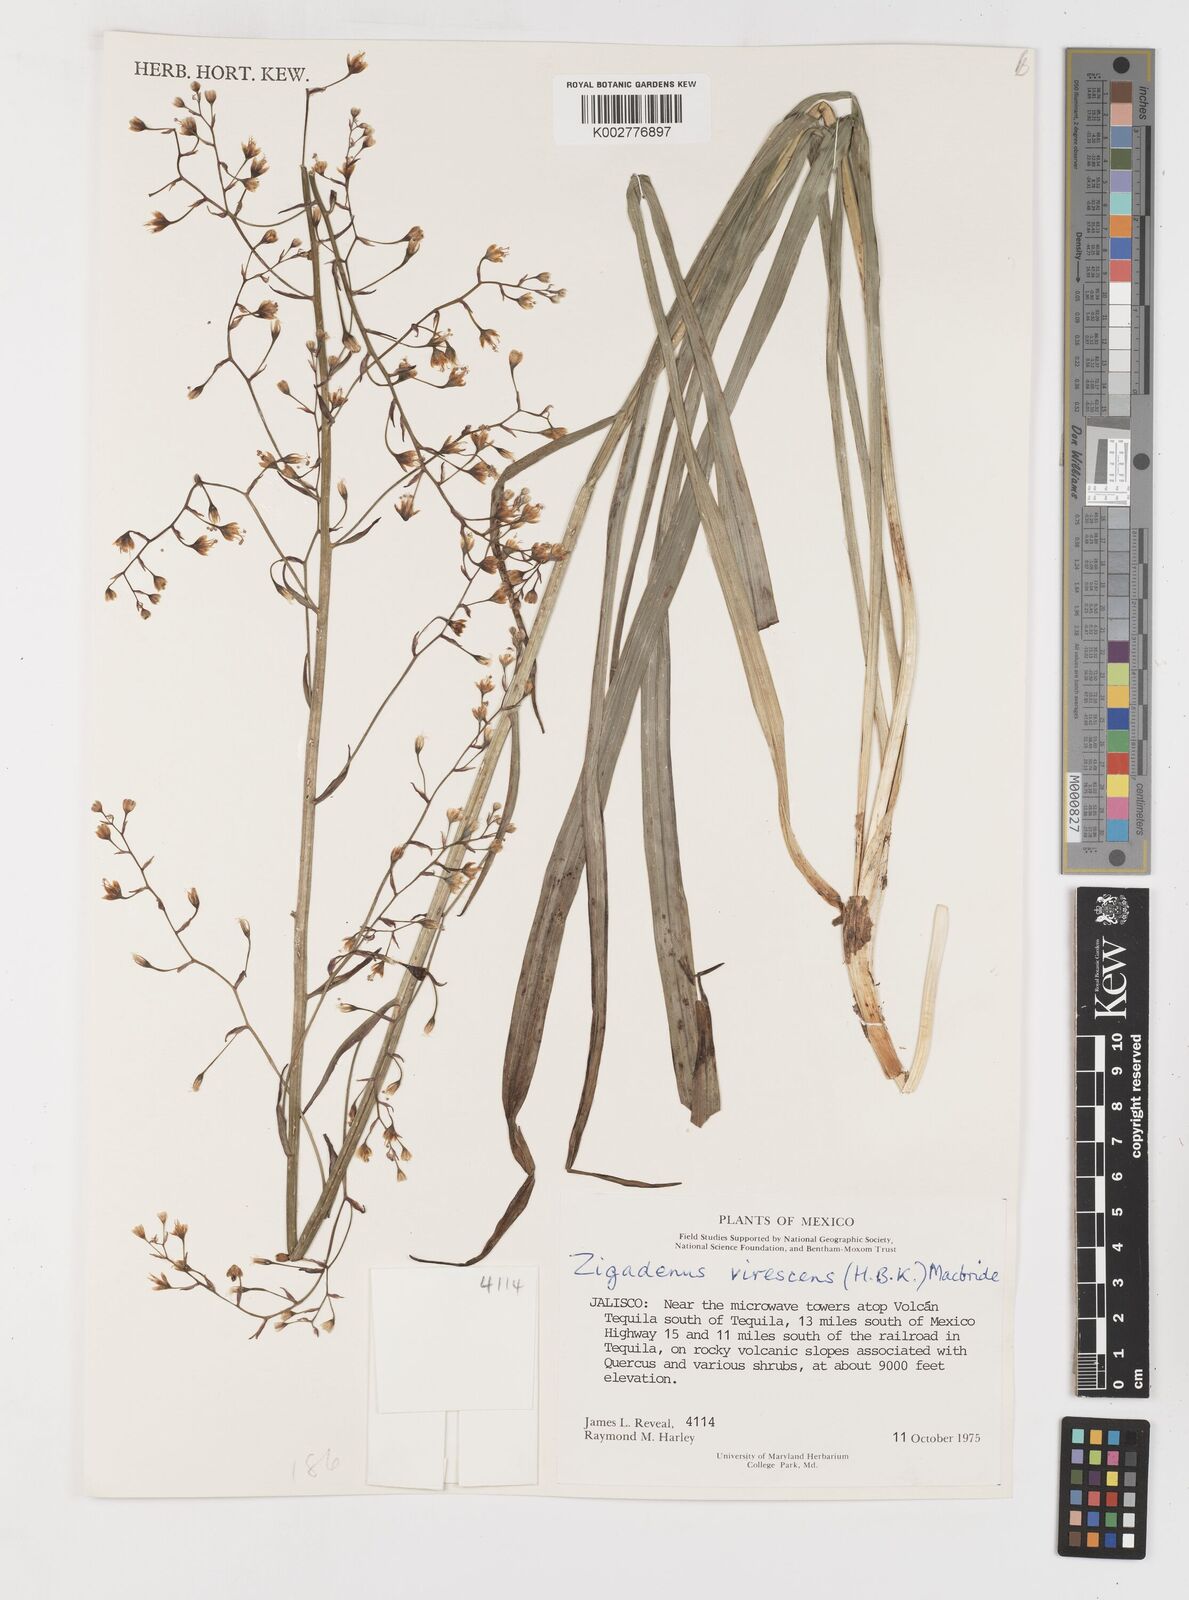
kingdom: Plantae
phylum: Tracheophyta
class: Liliopsida
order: Liliales
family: Melanthiaceae
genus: Anticlea
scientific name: Anticlea virescens
